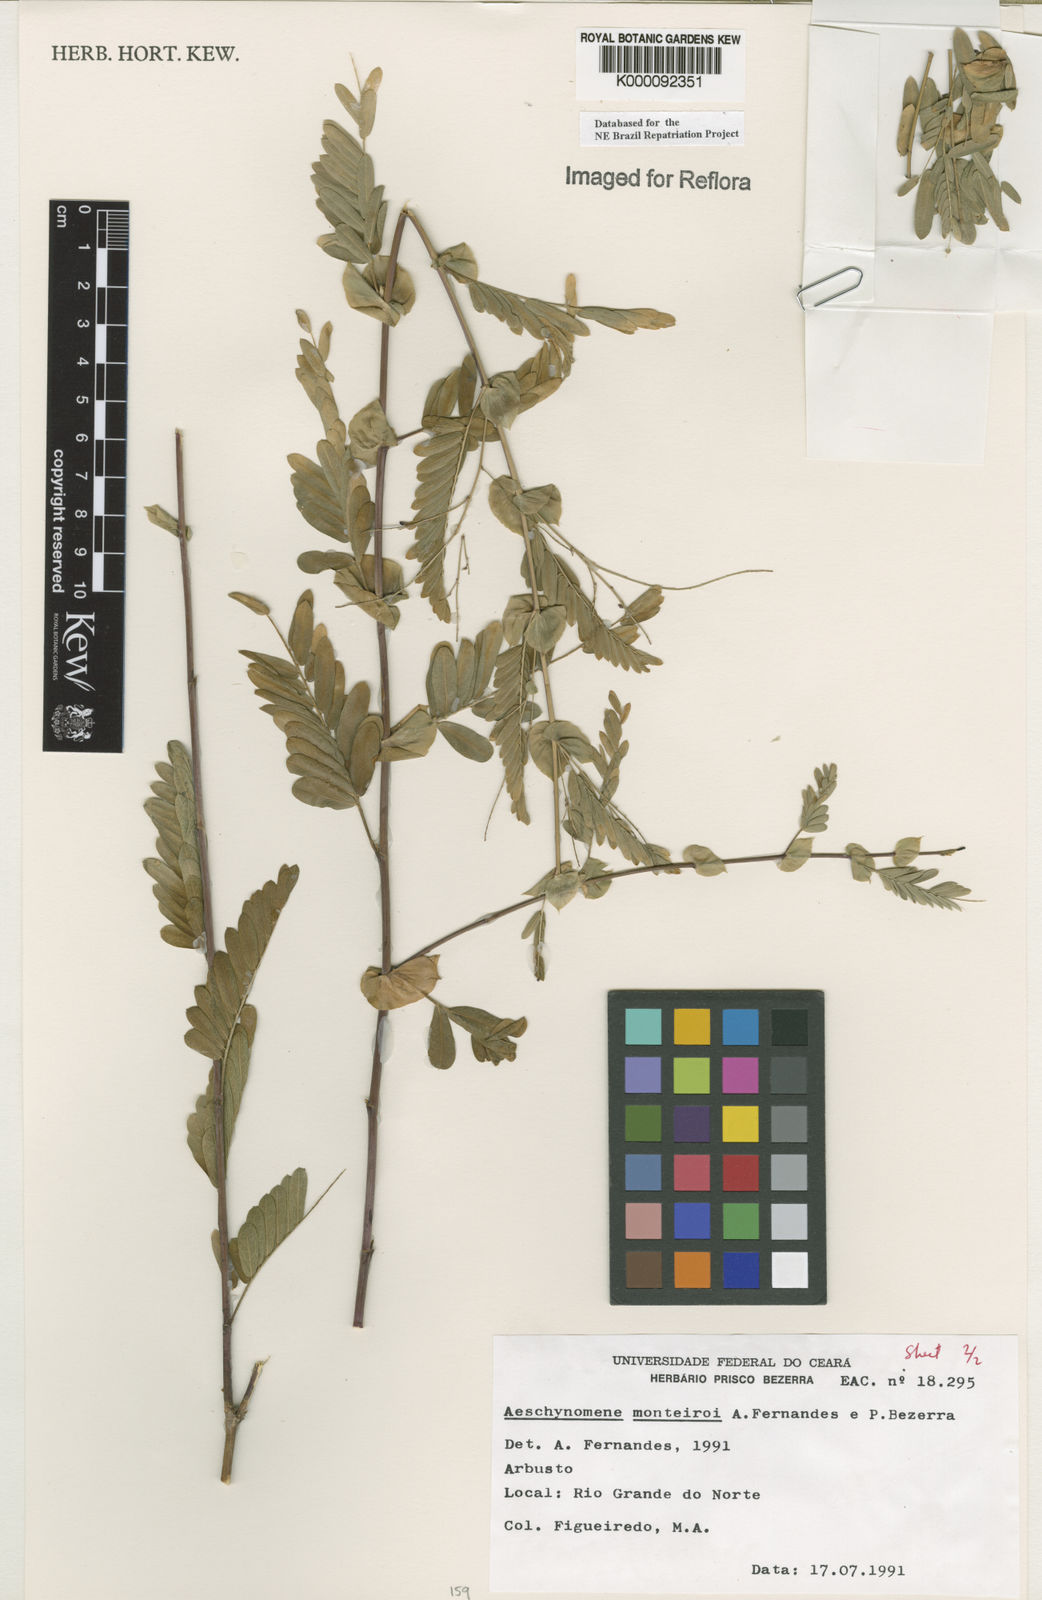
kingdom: Plantae
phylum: Tracheophyta
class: Magnoliopsida
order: Fabales
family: Fabaceae
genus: Ctenodon
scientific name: Ctenodon monteiroi
